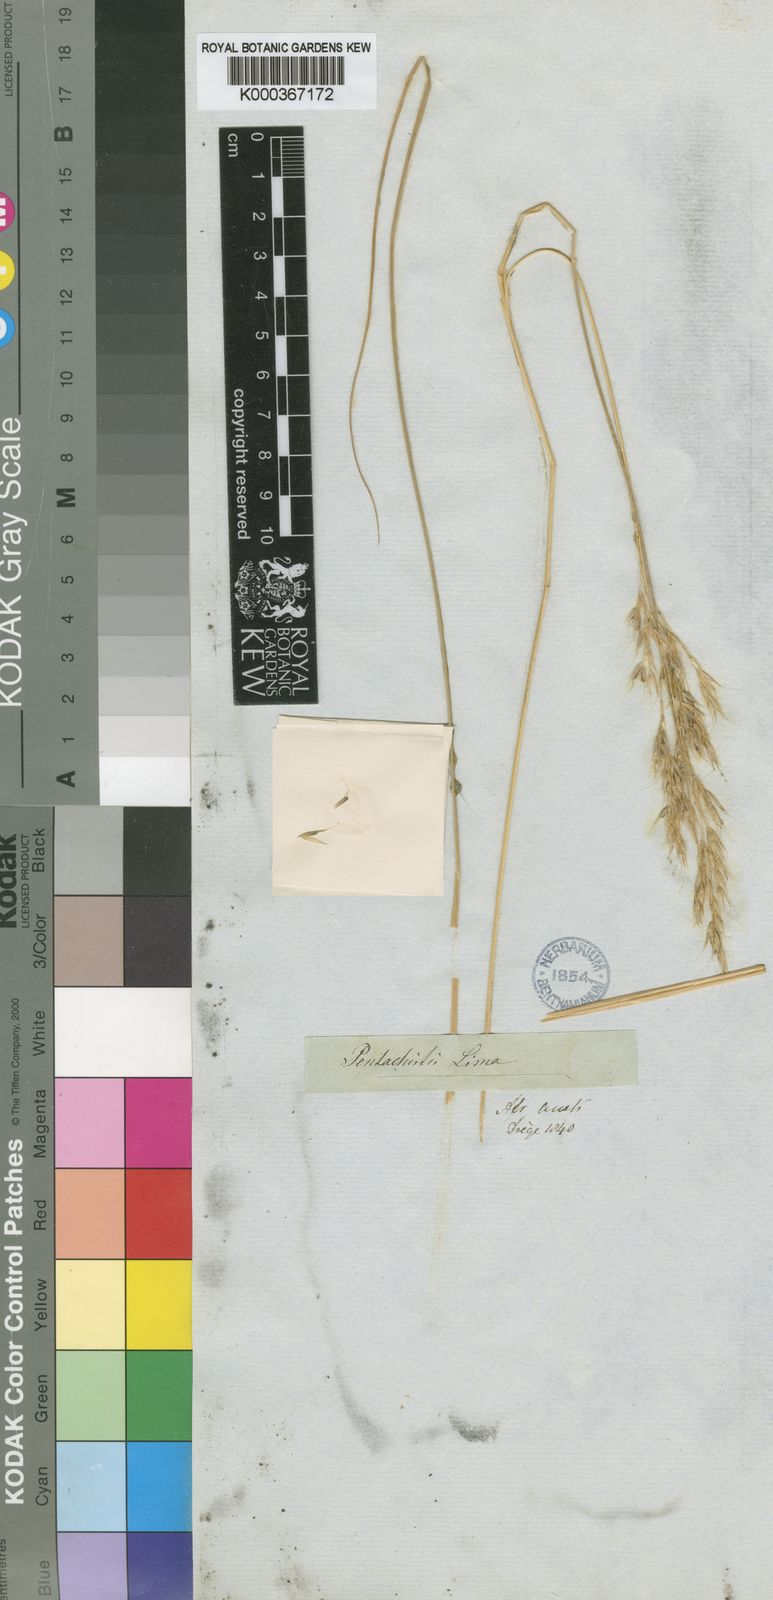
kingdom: Plantae
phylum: Tracheophyta
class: Liliopsida
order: Poales
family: Poaceae
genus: Pentaschistis
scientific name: Pentaschistis
